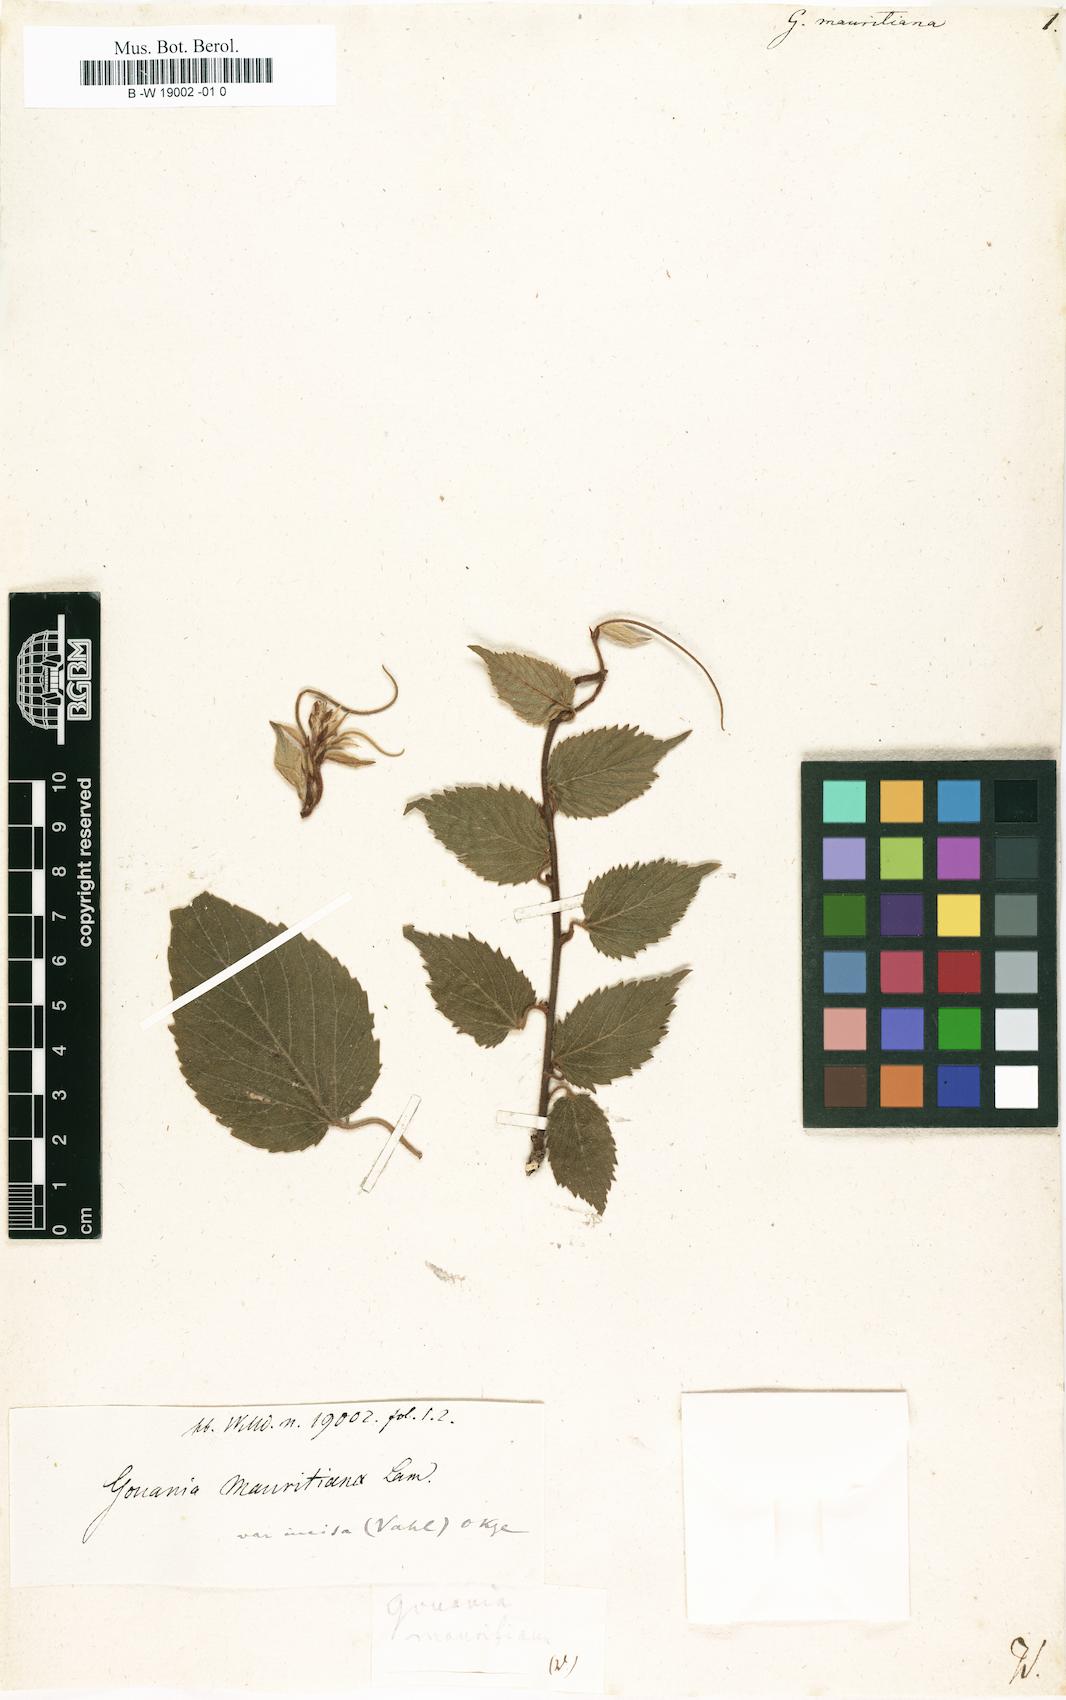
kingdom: Plantae
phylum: Tracheophyta
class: Magnoliopsida
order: Rosales
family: Rhamnaceae
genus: Gouania
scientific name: Gouania mauritiana
